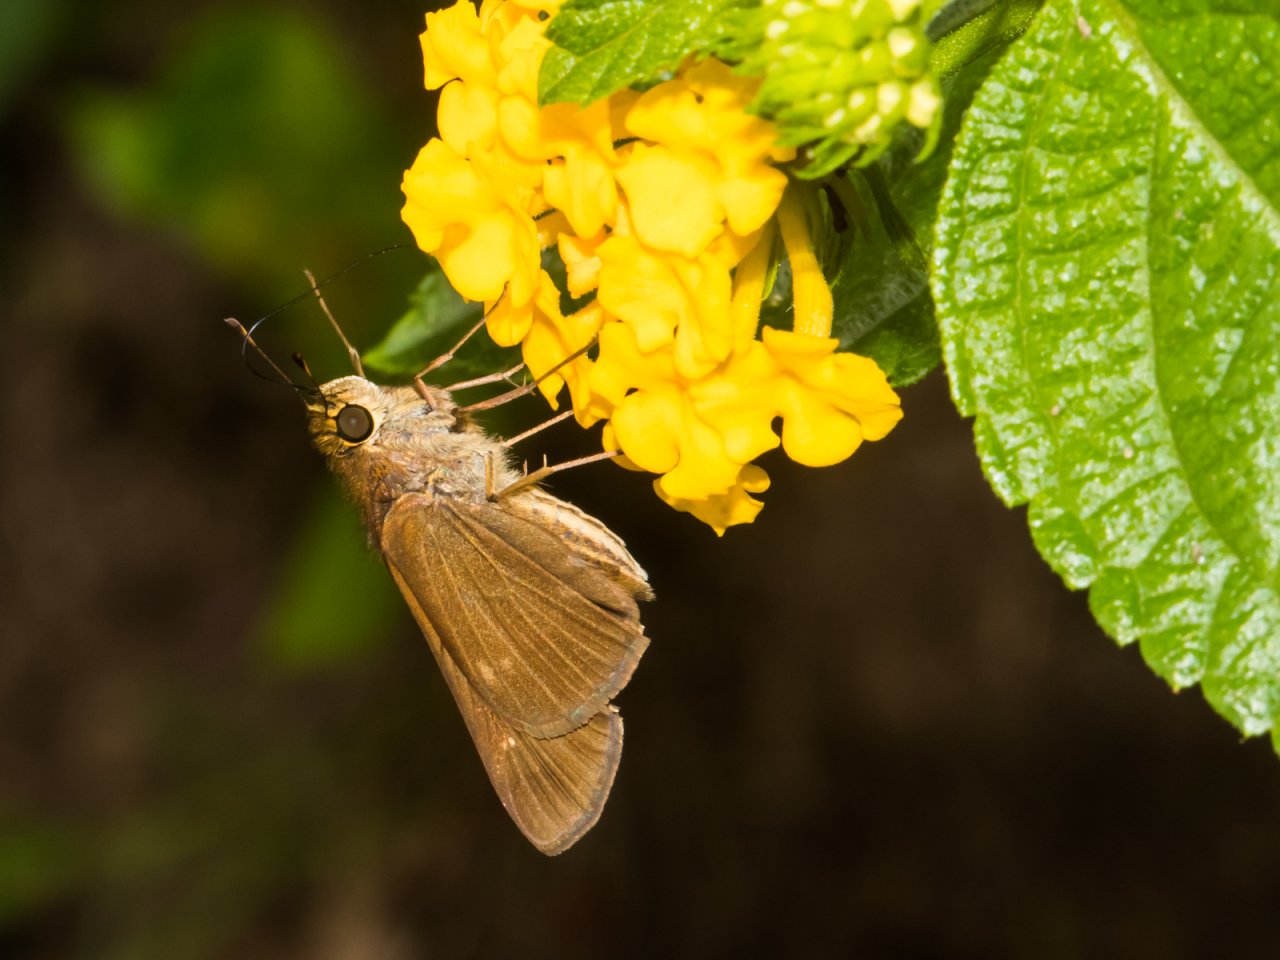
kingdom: Animalia
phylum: Arthropoda
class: Insecta
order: Lepidoptera
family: Hesperiidae
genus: Panoquina
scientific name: Panoquina ocola
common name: Ocola Skipper
